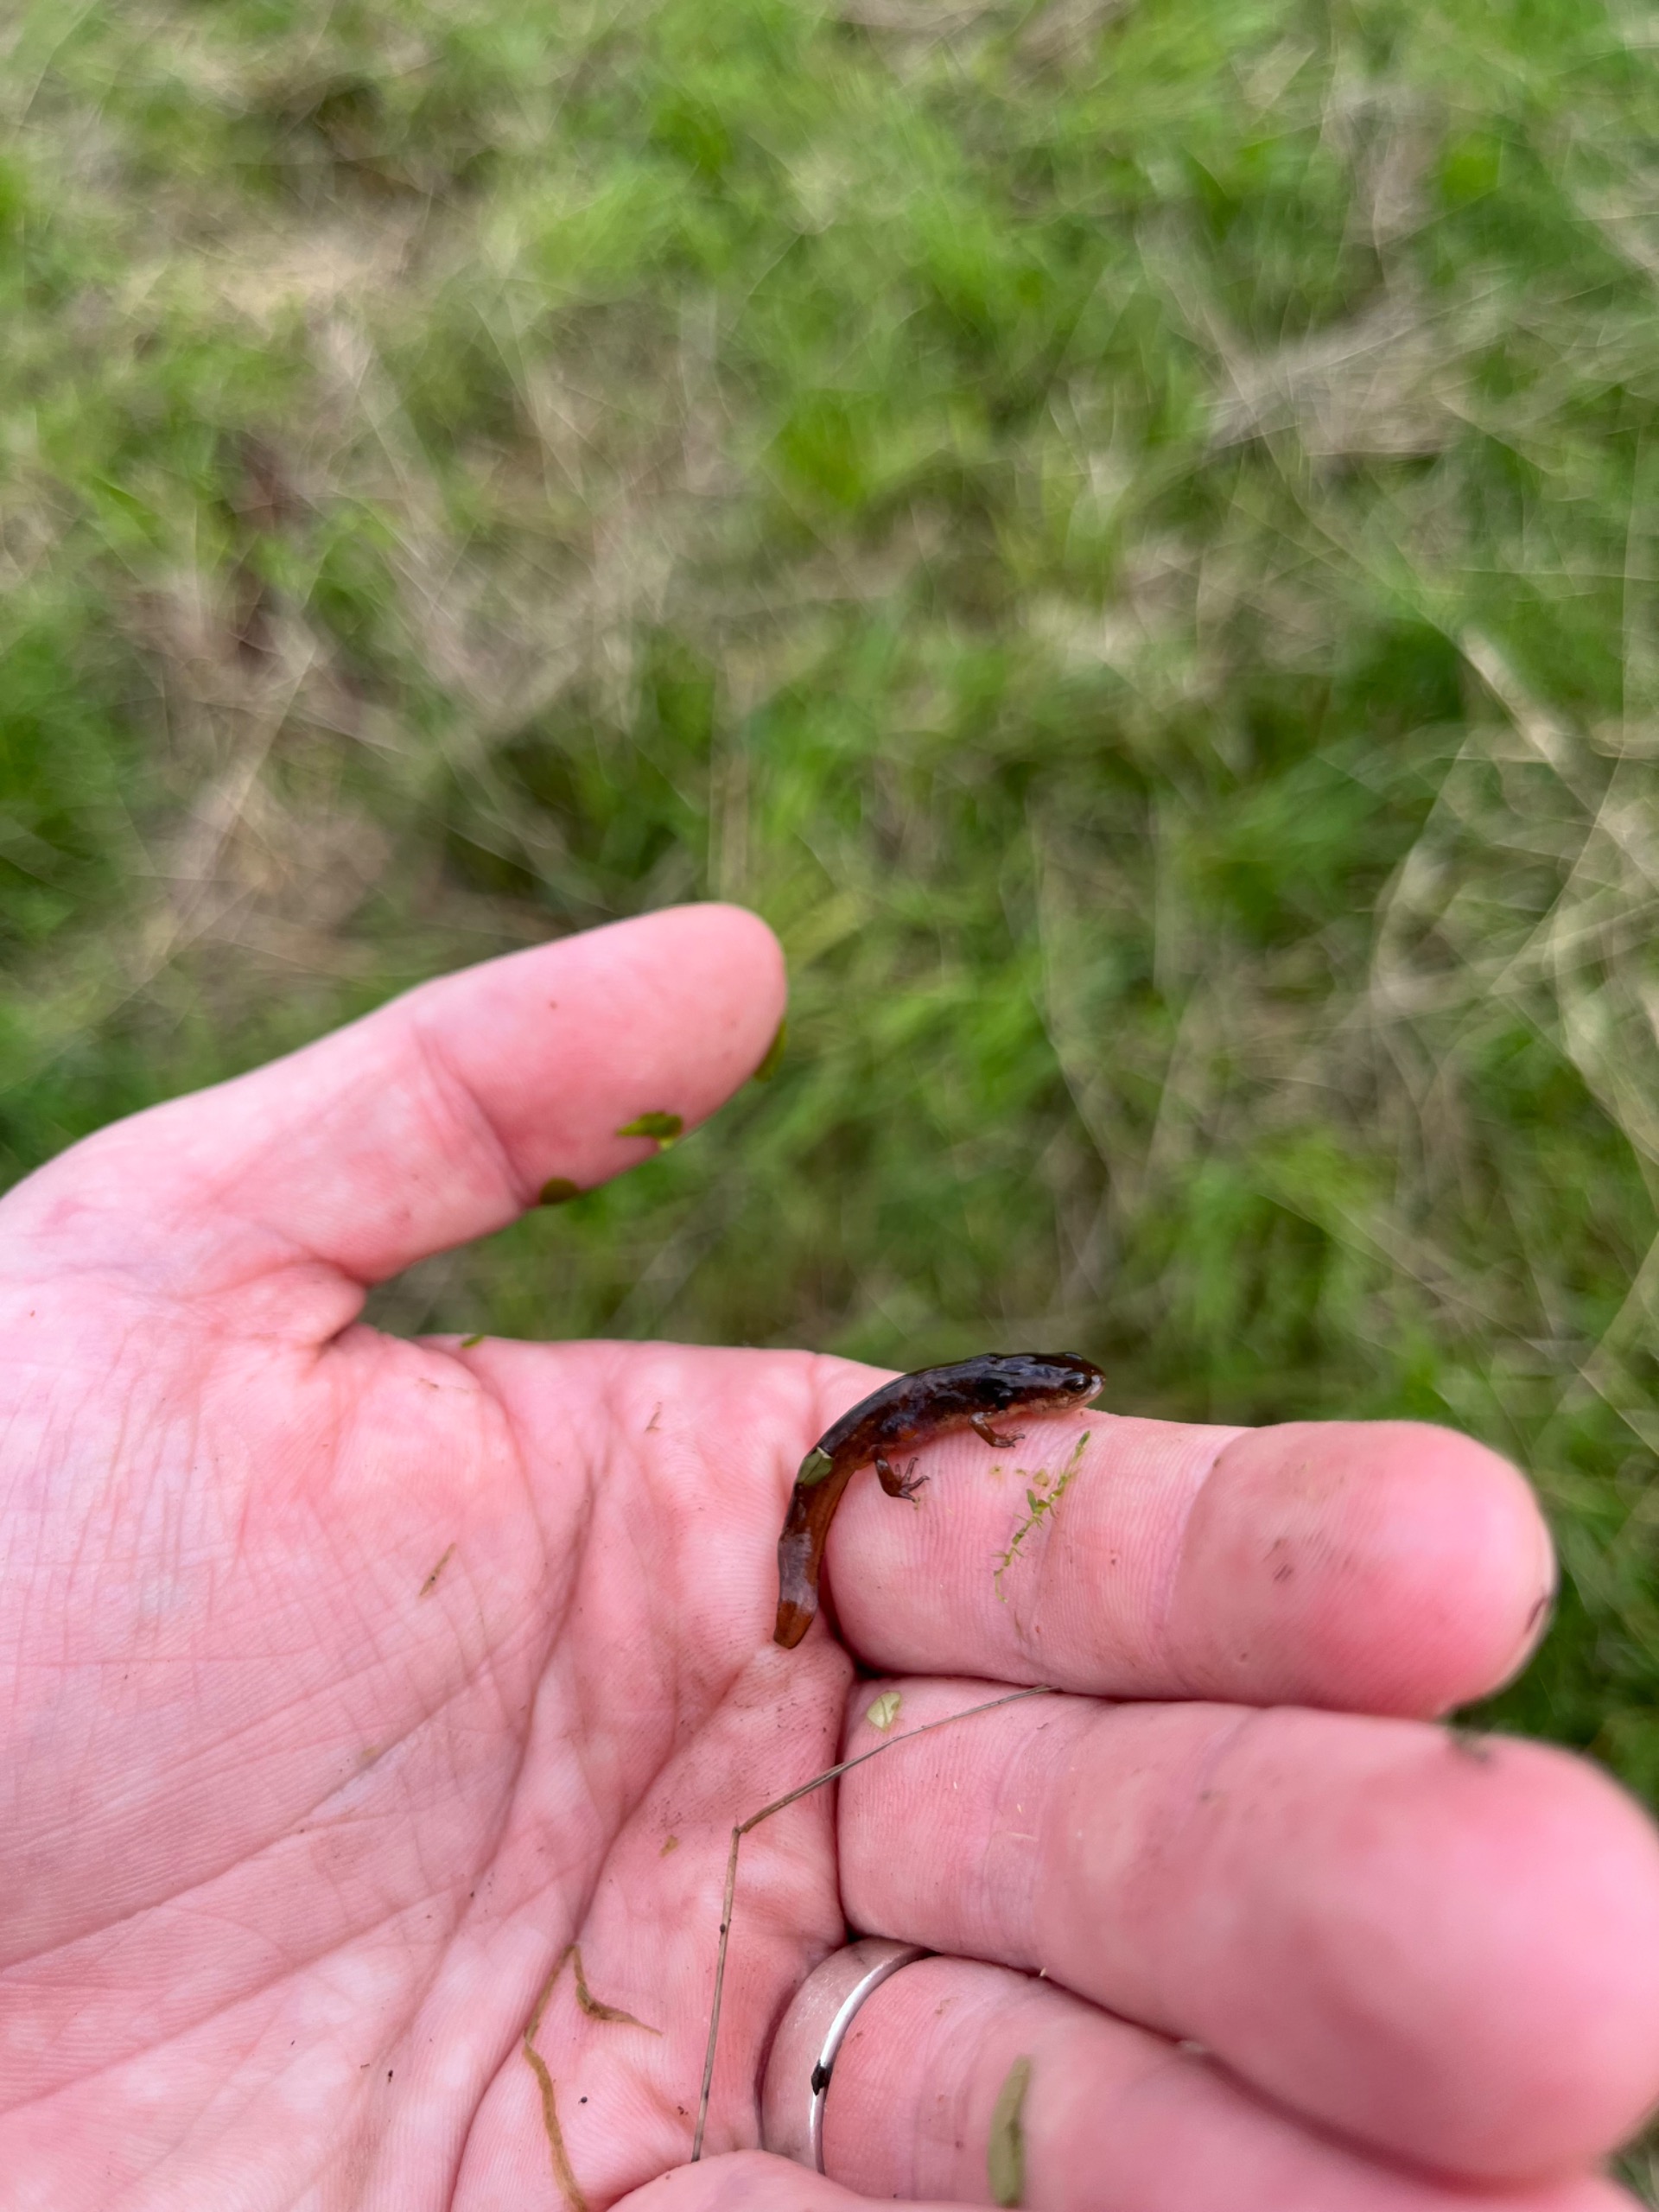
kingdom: Animalia
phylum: Chordata
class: Amphibia
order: Caudata
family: Salamandridae
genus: Lissotriton
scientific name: Lissotriton vulgaris
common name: Lille vandsalamander
